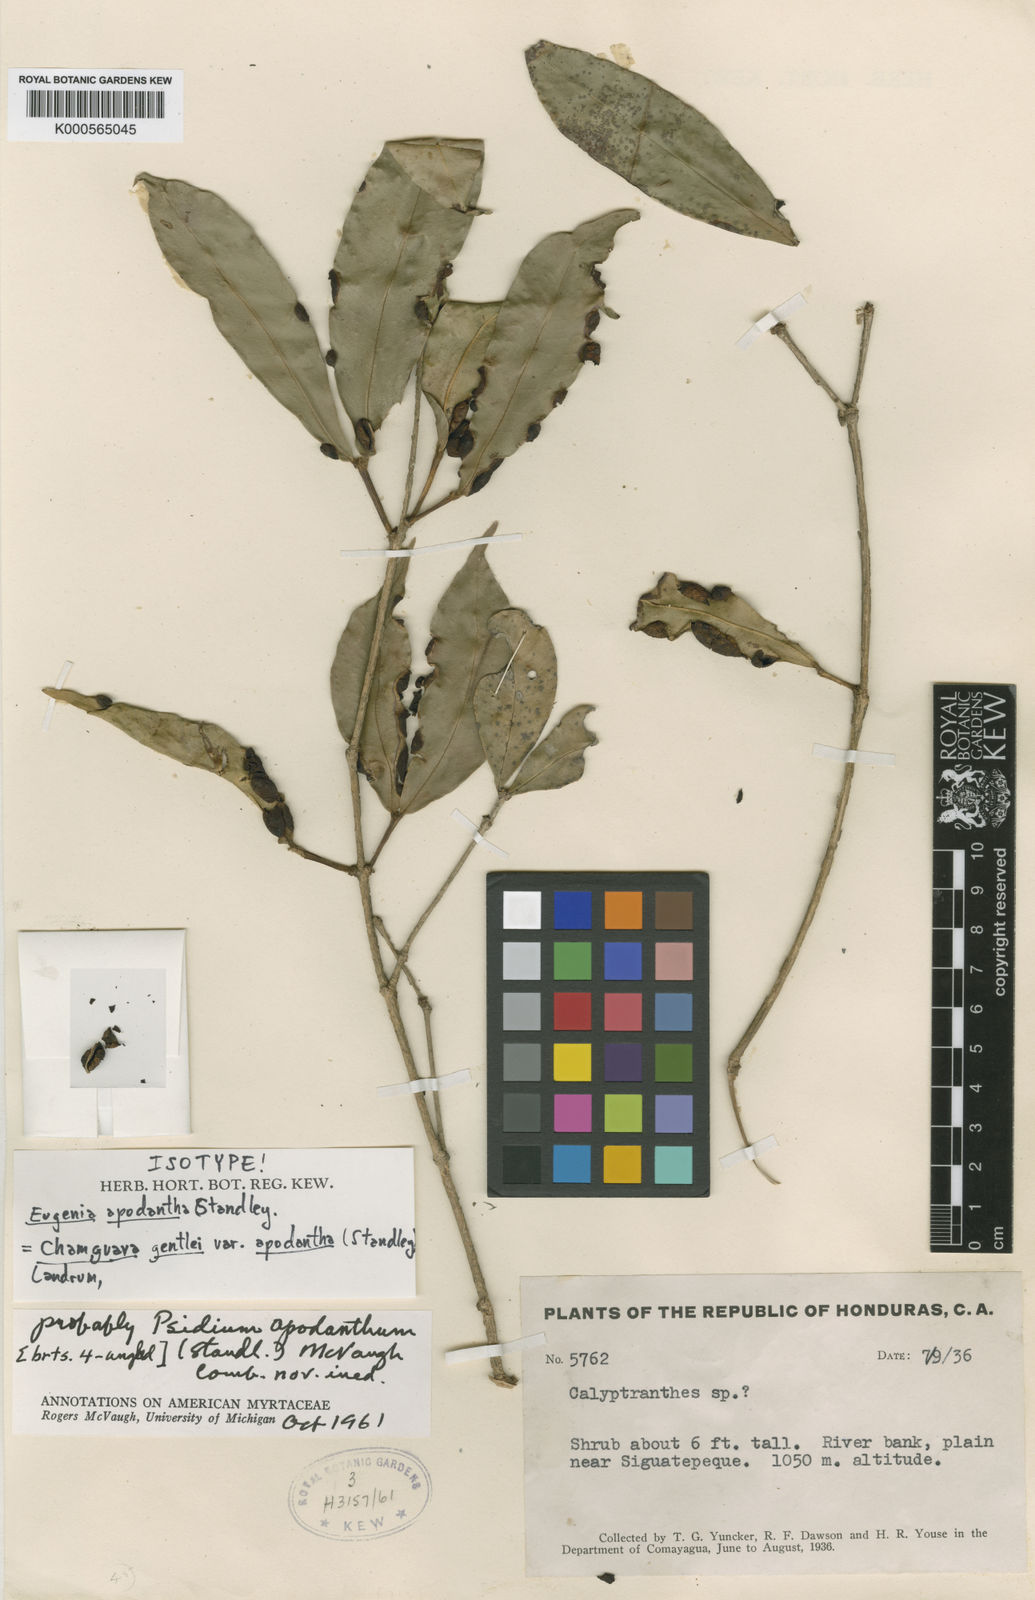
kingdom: Plantae
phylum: Tracheophyta
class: Magnoliopsida
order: Myrtales
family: Myrtaceae
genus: Chamguava
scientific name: Chamguava gentlei
